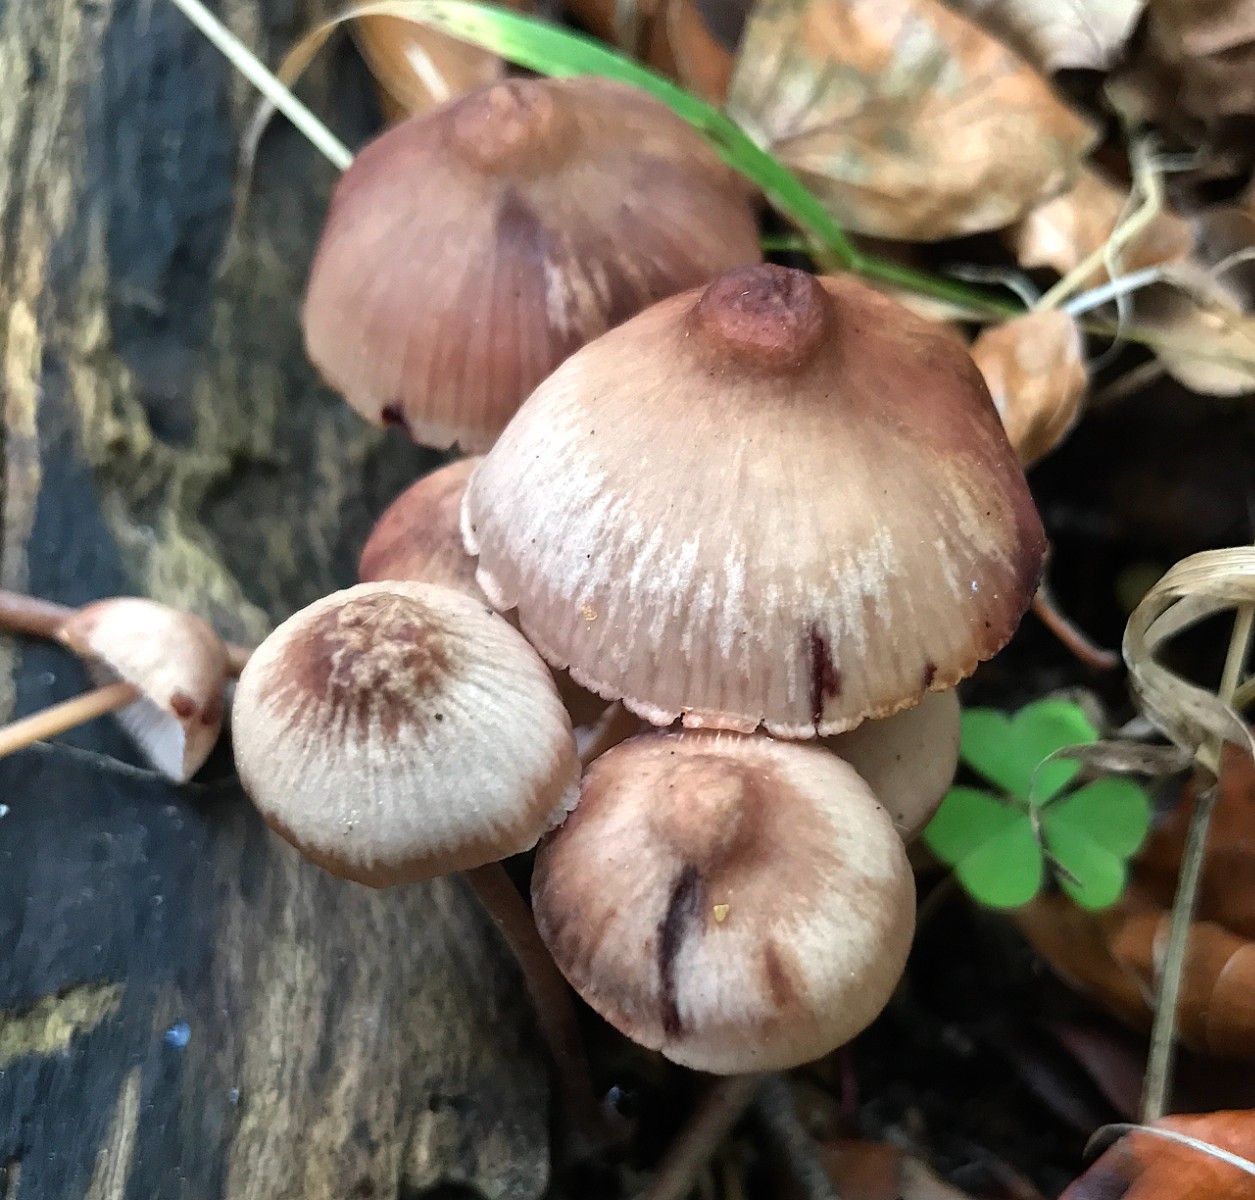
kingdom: Fungi
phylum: Basidiomycota
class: Agaricomycetes
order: Agaricales
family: Mycenaceae
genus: Mycena
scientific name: Mycena haematopus
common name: blødende huesvamp
